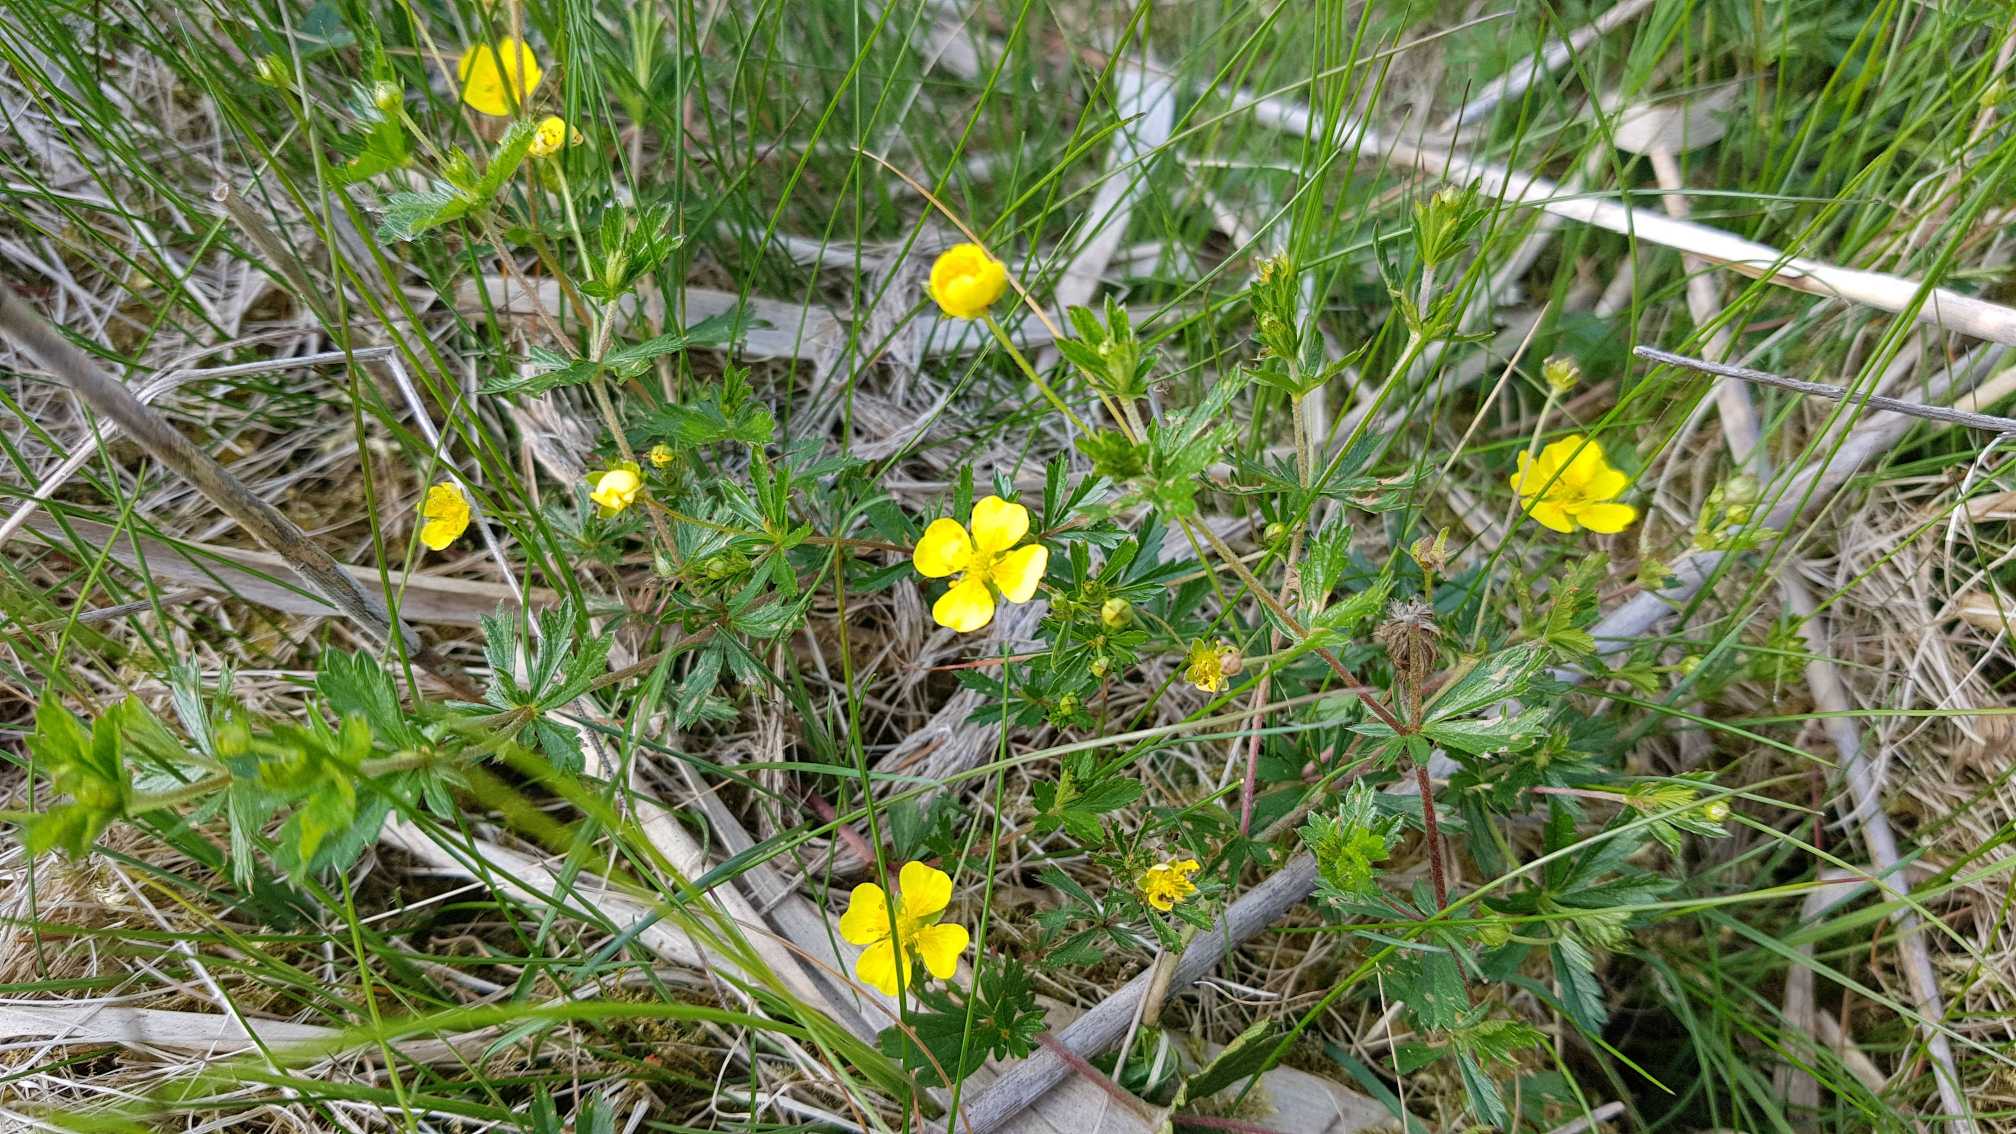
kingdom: Plantae
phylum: Tracheophyta
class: Magnoliopsida
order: Rosales
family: Rosaceae
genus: Potentilla
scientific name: Potentilla erecta
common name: Tormentil
